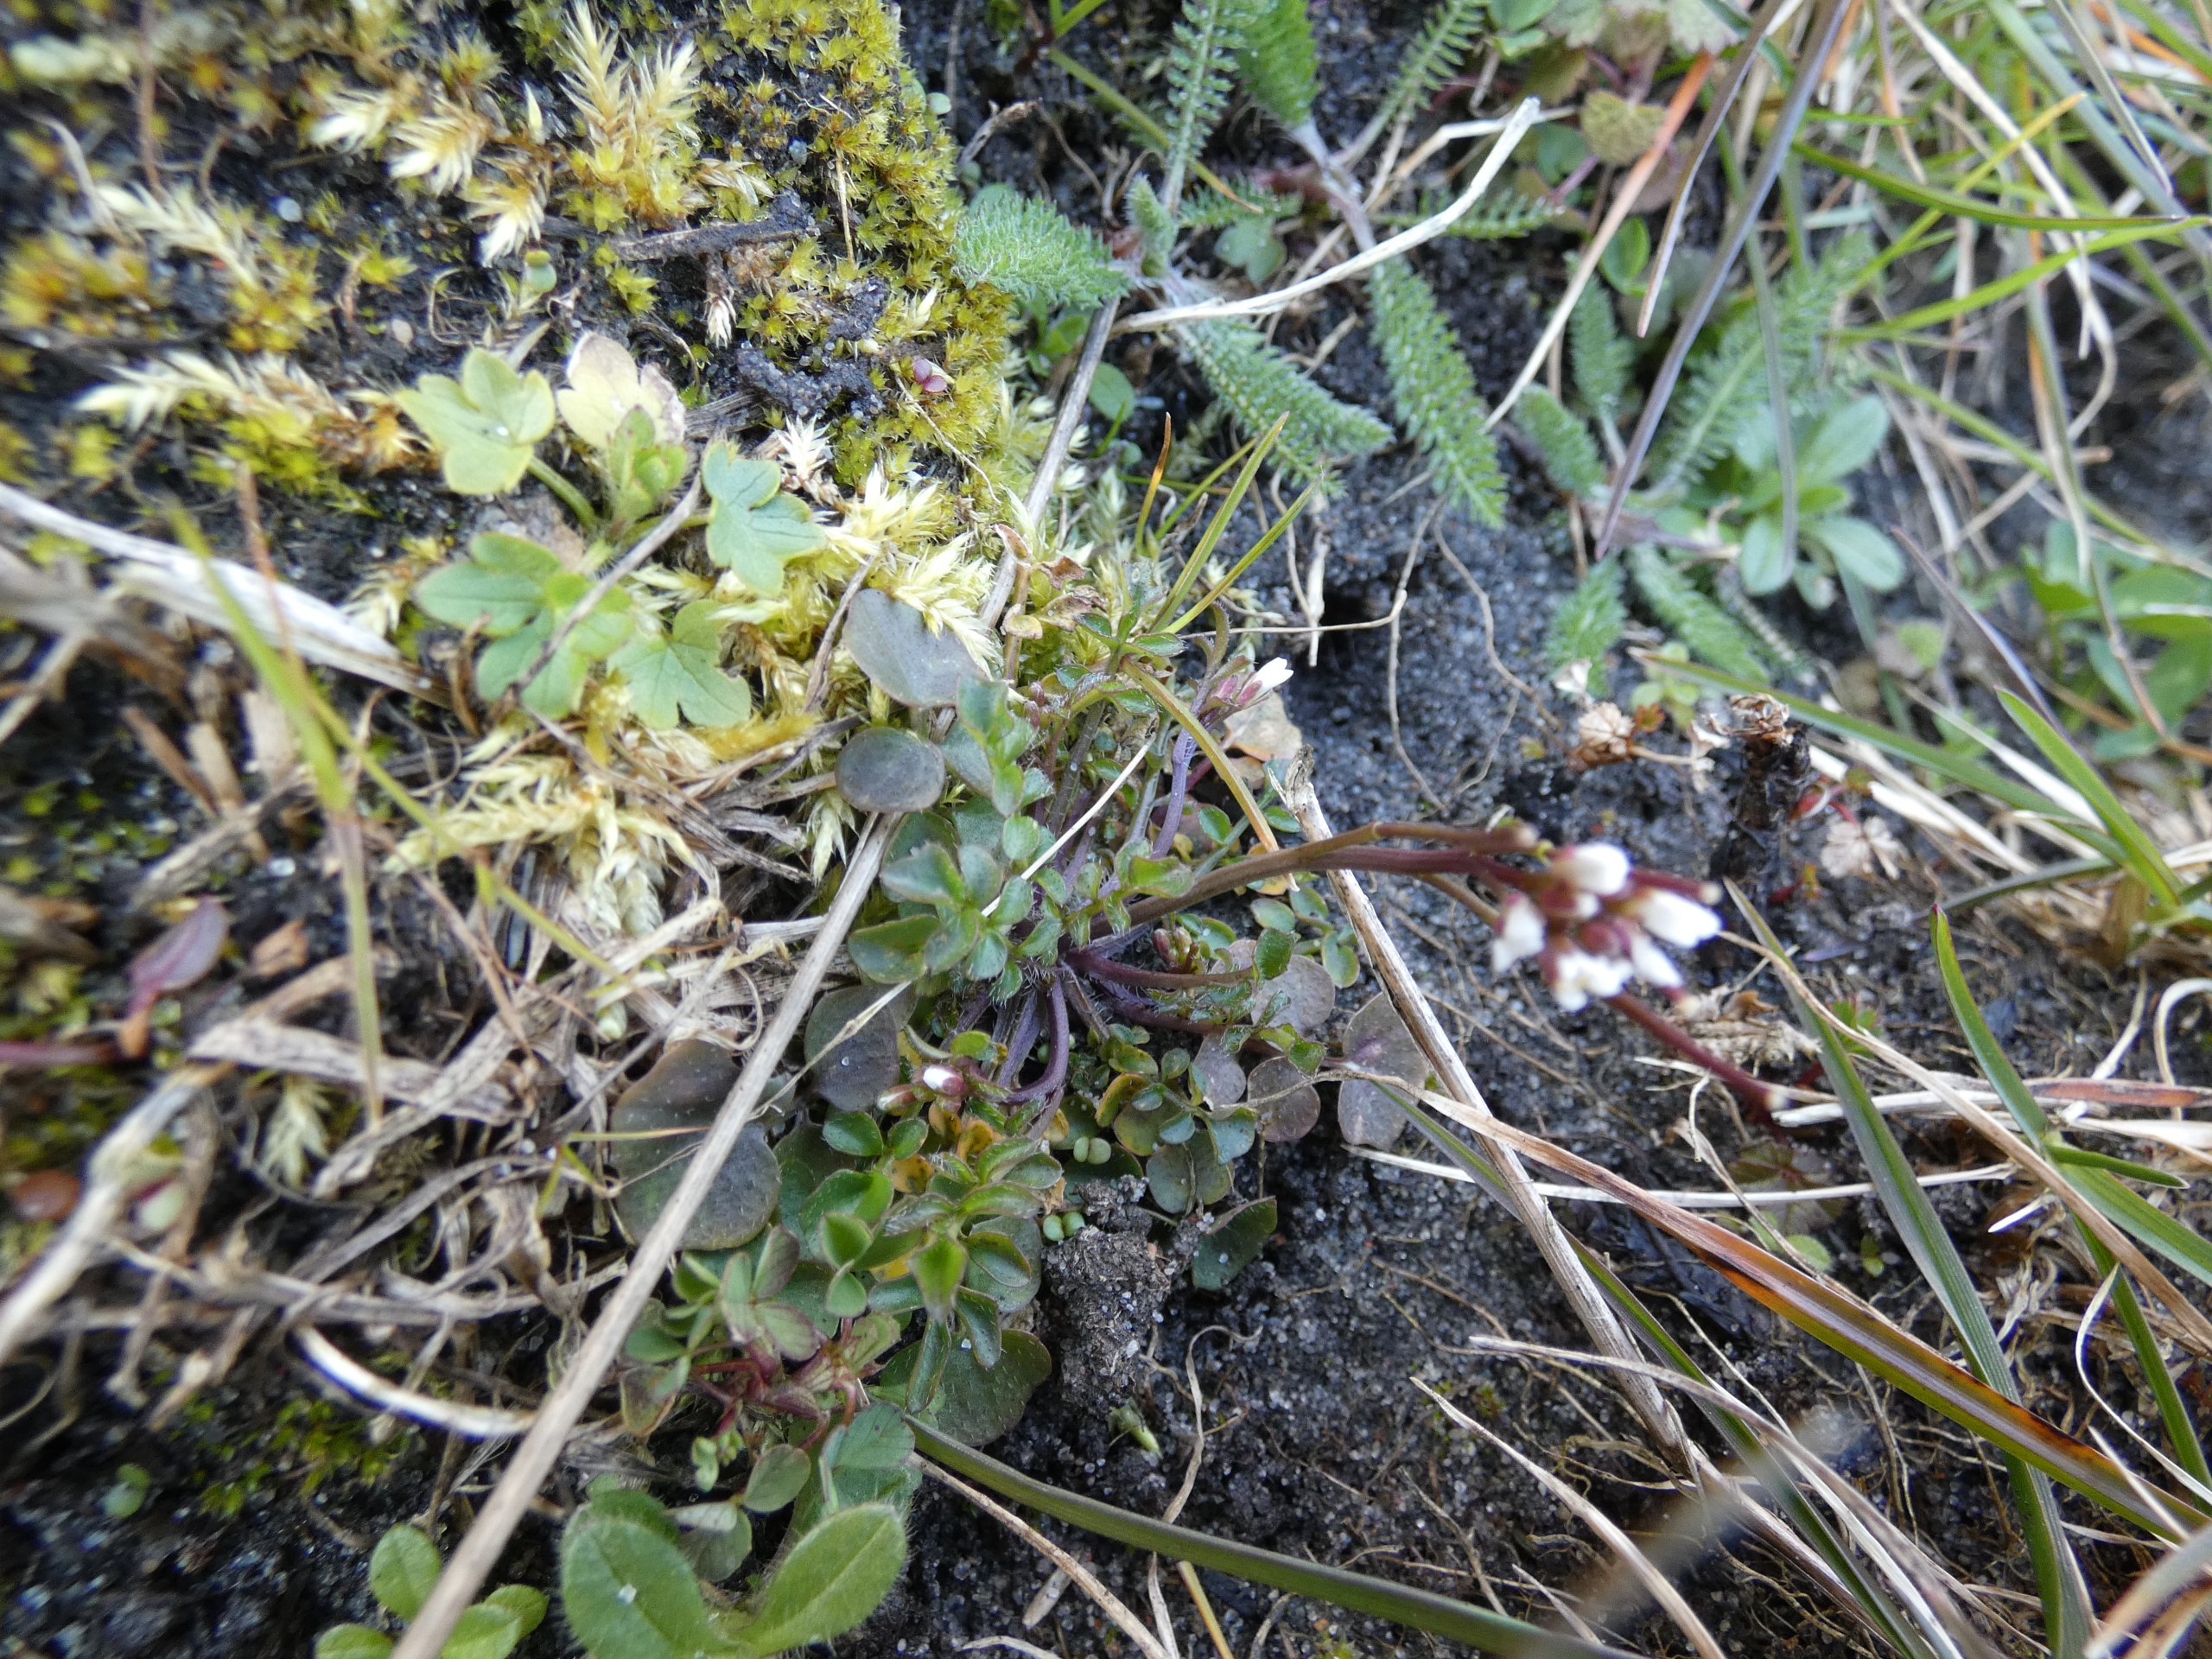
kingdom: Plantae
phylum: Tracheophyta
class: Magnoliopsida
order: Brassicales
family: Brassicaceae
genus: Cardamine
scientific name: Cardamine hirsuta
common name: Roset-springklap
